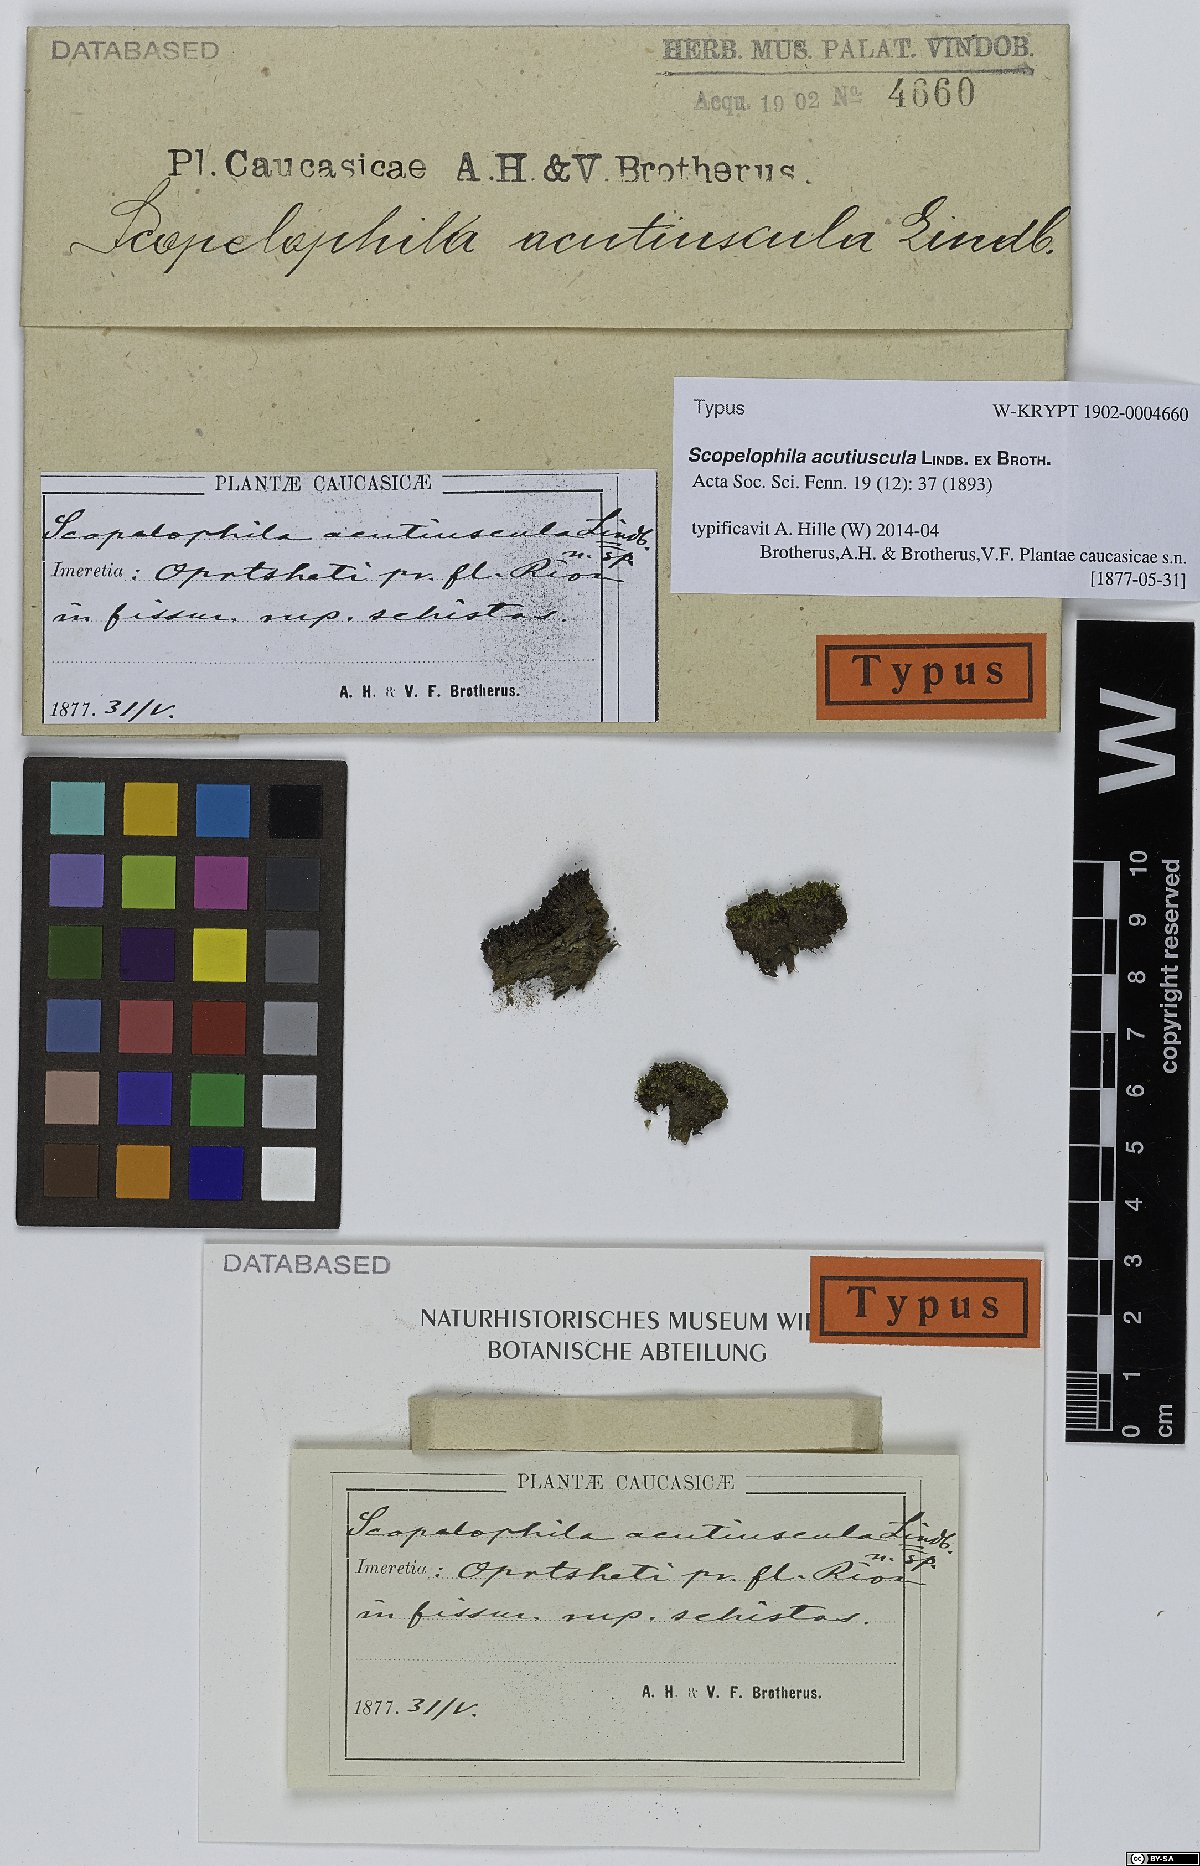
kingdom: Plantae
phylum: Bryophyta
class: Bryopsida
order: Pottiales
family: Pottiaceae
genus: Scopelophila
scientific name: Scopelophila ligulata
